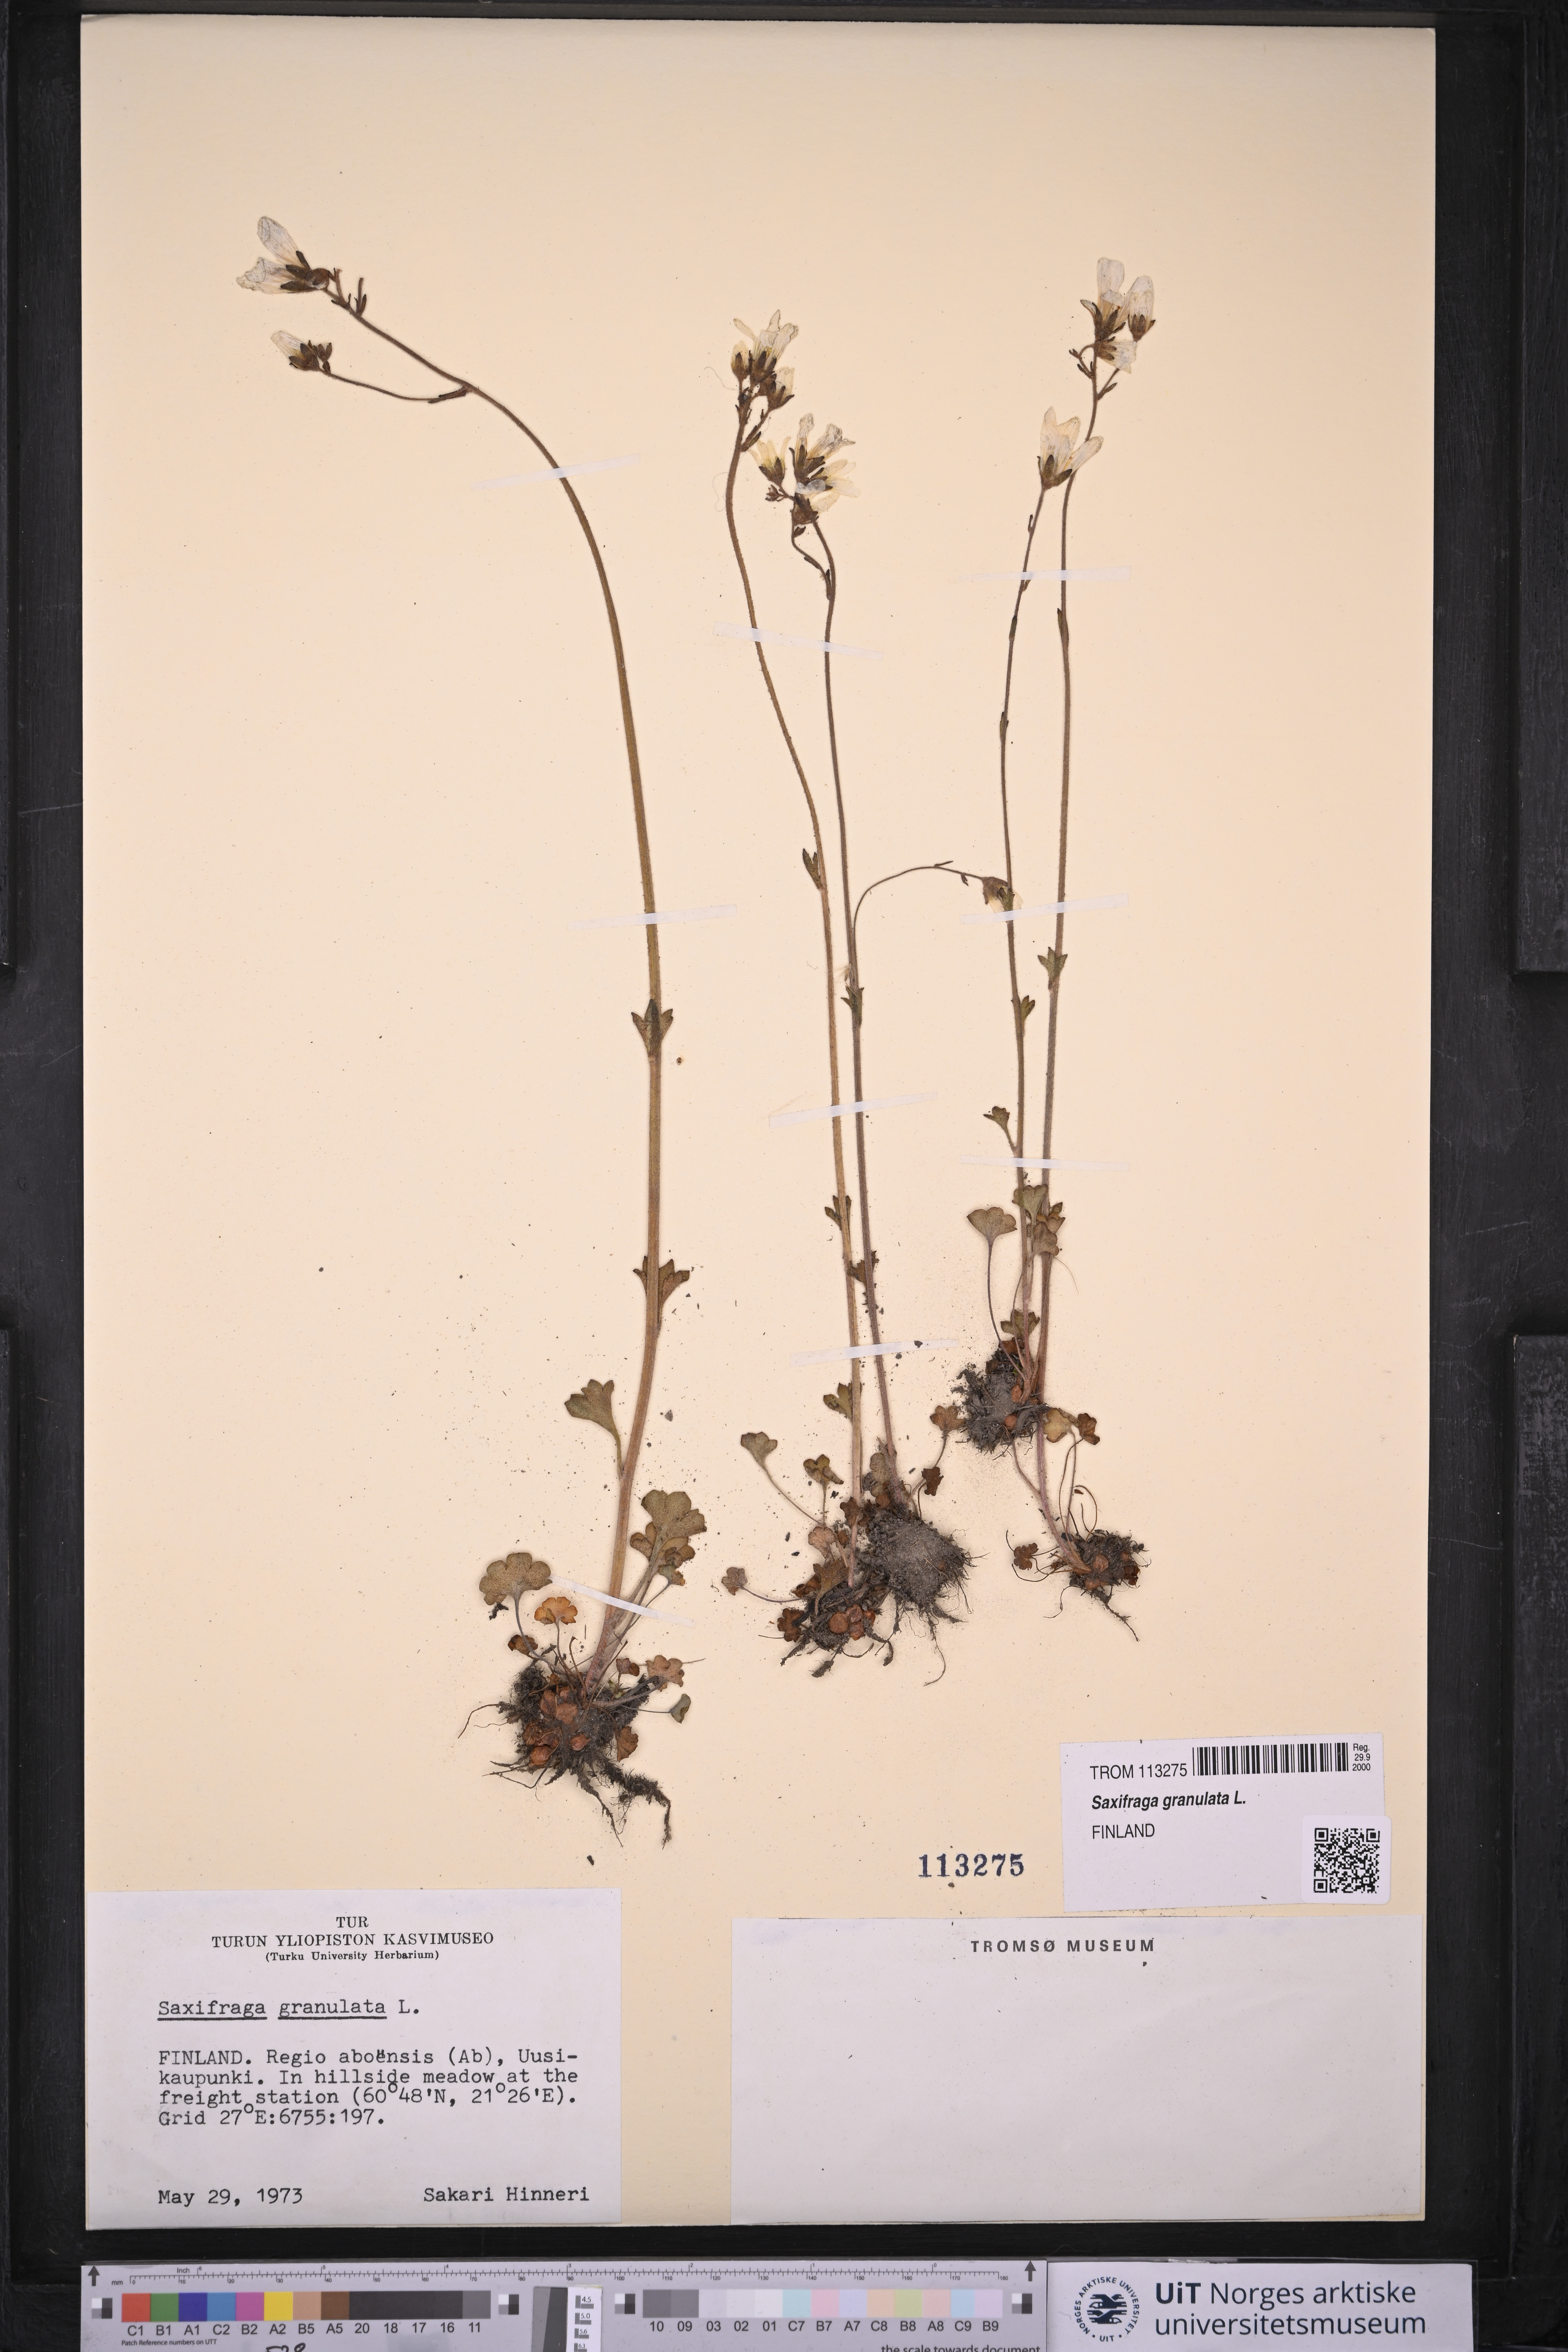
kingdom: Plantae
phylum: Tracheophyta
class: Magnoliopsida
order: Saxifragales
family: Saxifragaceae
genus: Saxifraga
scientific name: Saxifraga granulata
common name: Meadow saxifrage
